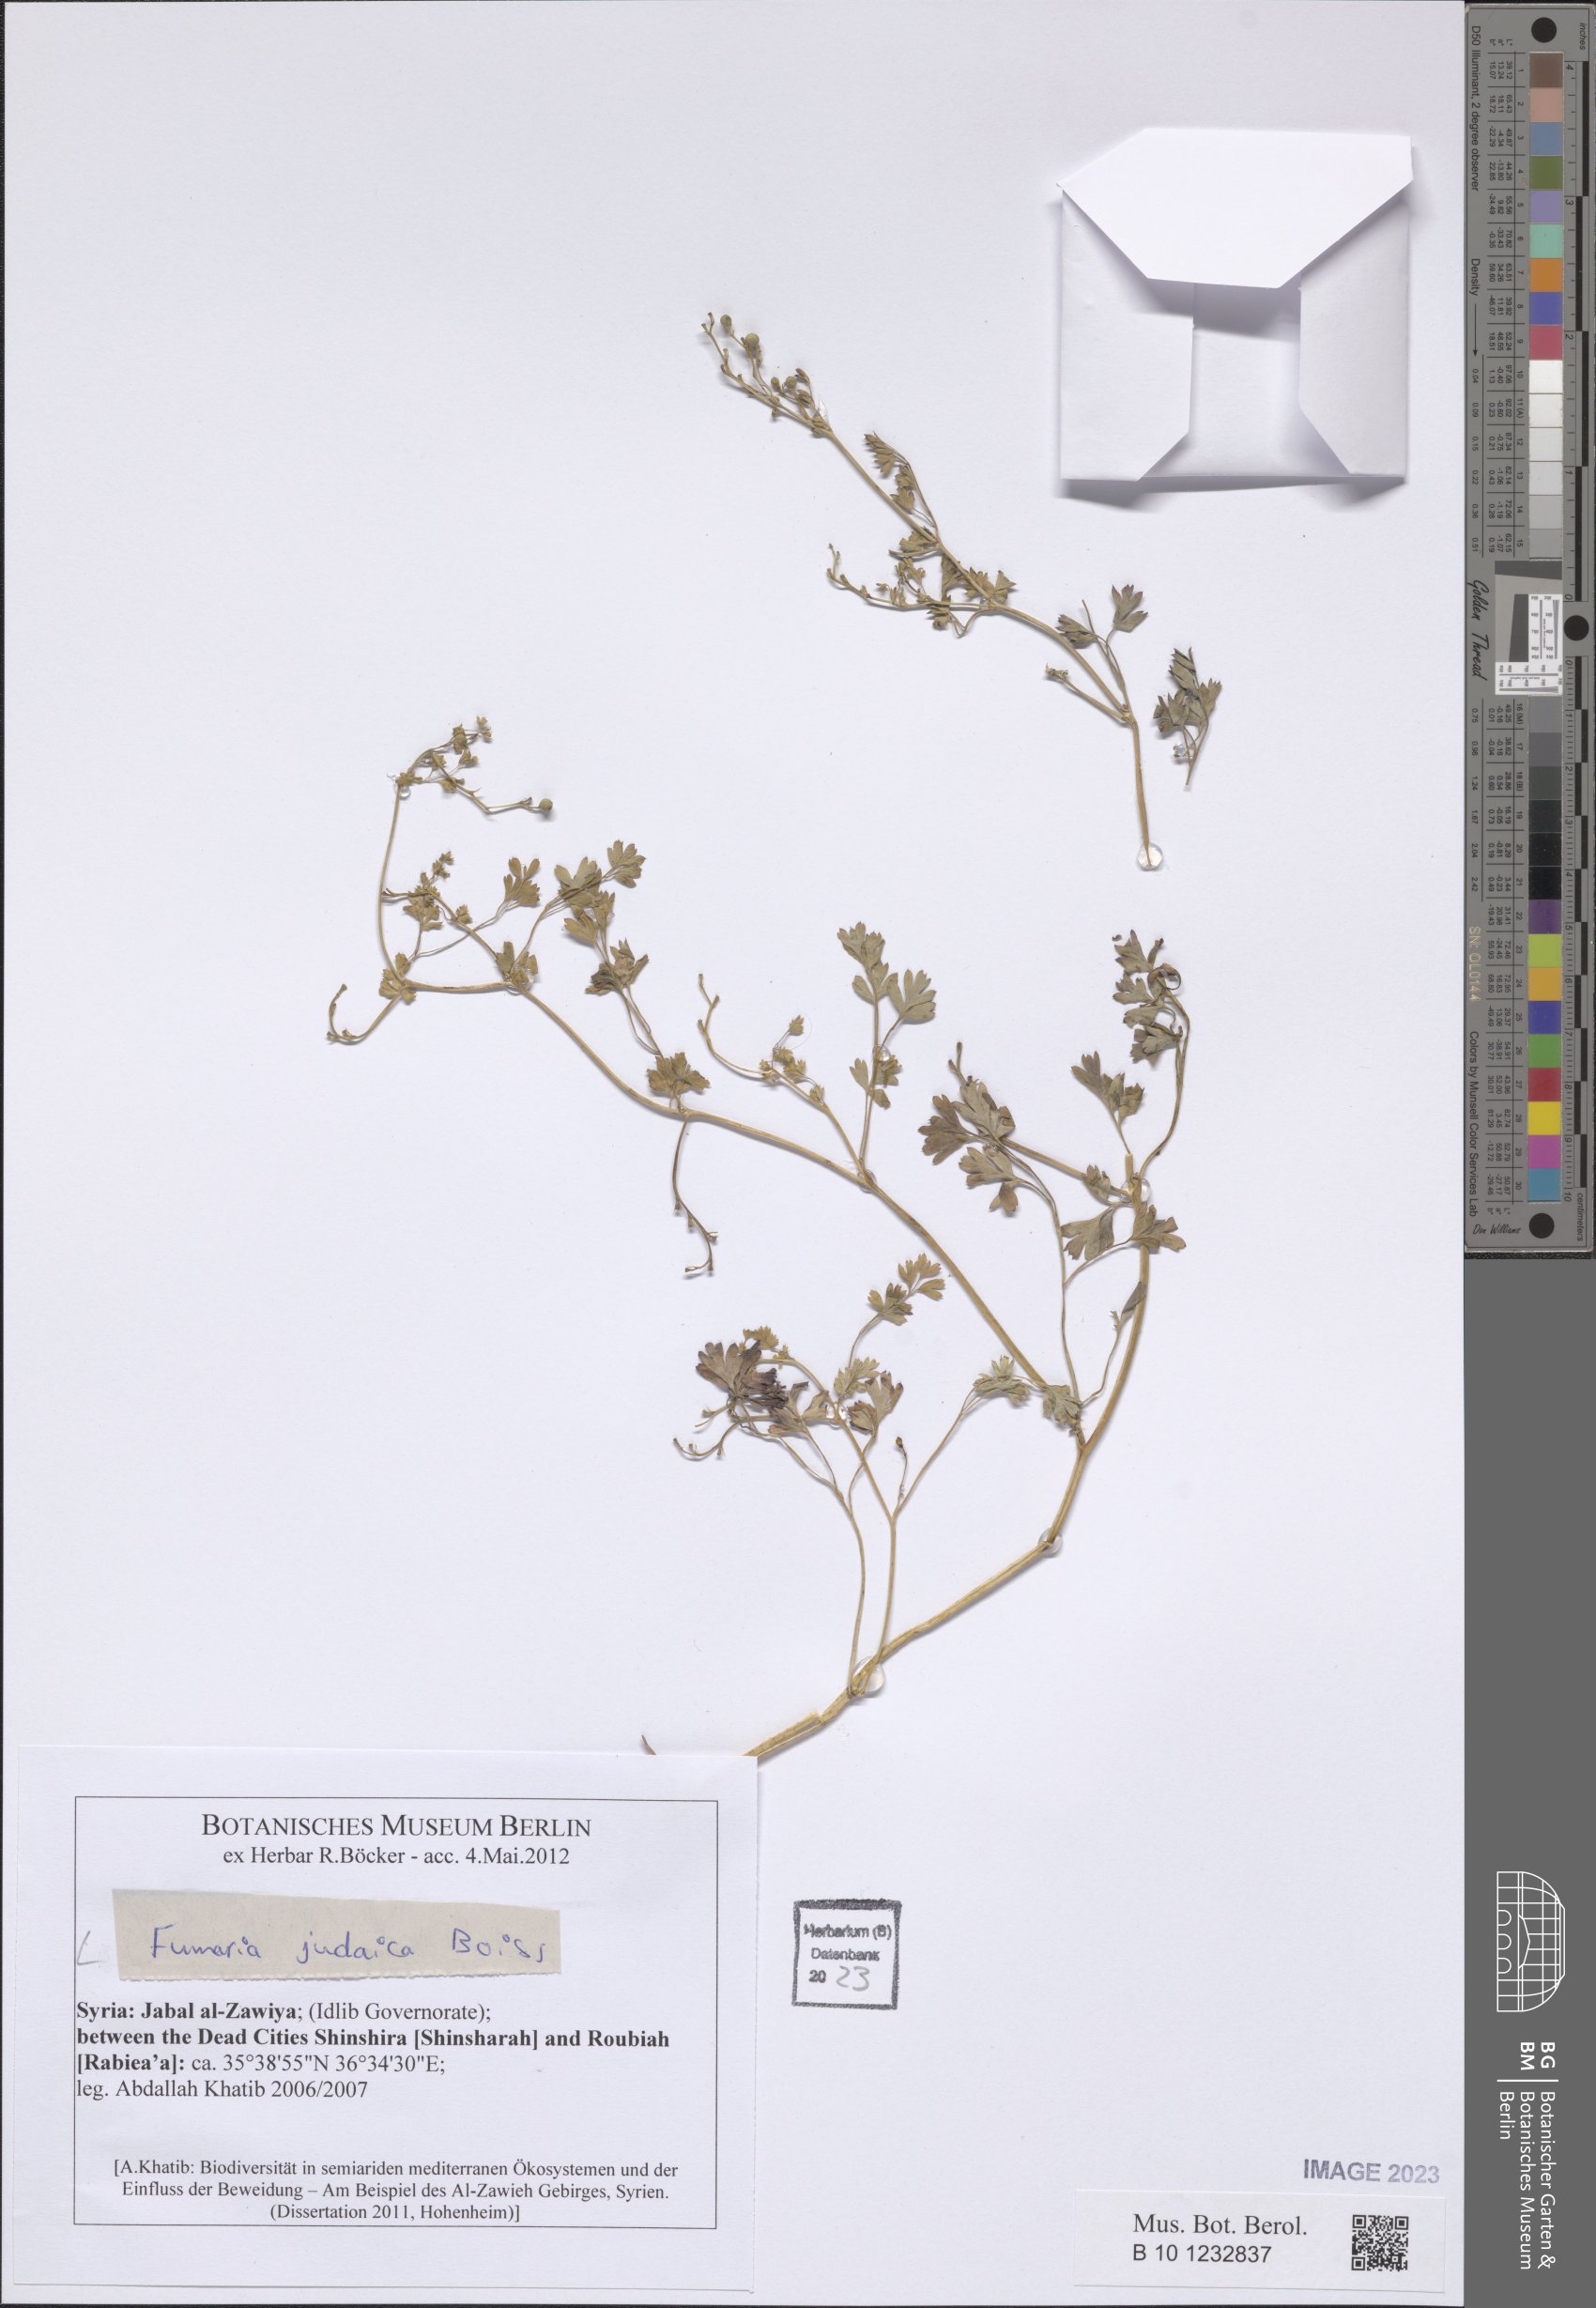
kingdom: Plantae
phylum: Tracheophyta
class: Magnoliopsida
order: Ranunculales
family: Papaveraceae
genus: Fumaria
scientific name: Fumaria judaica
